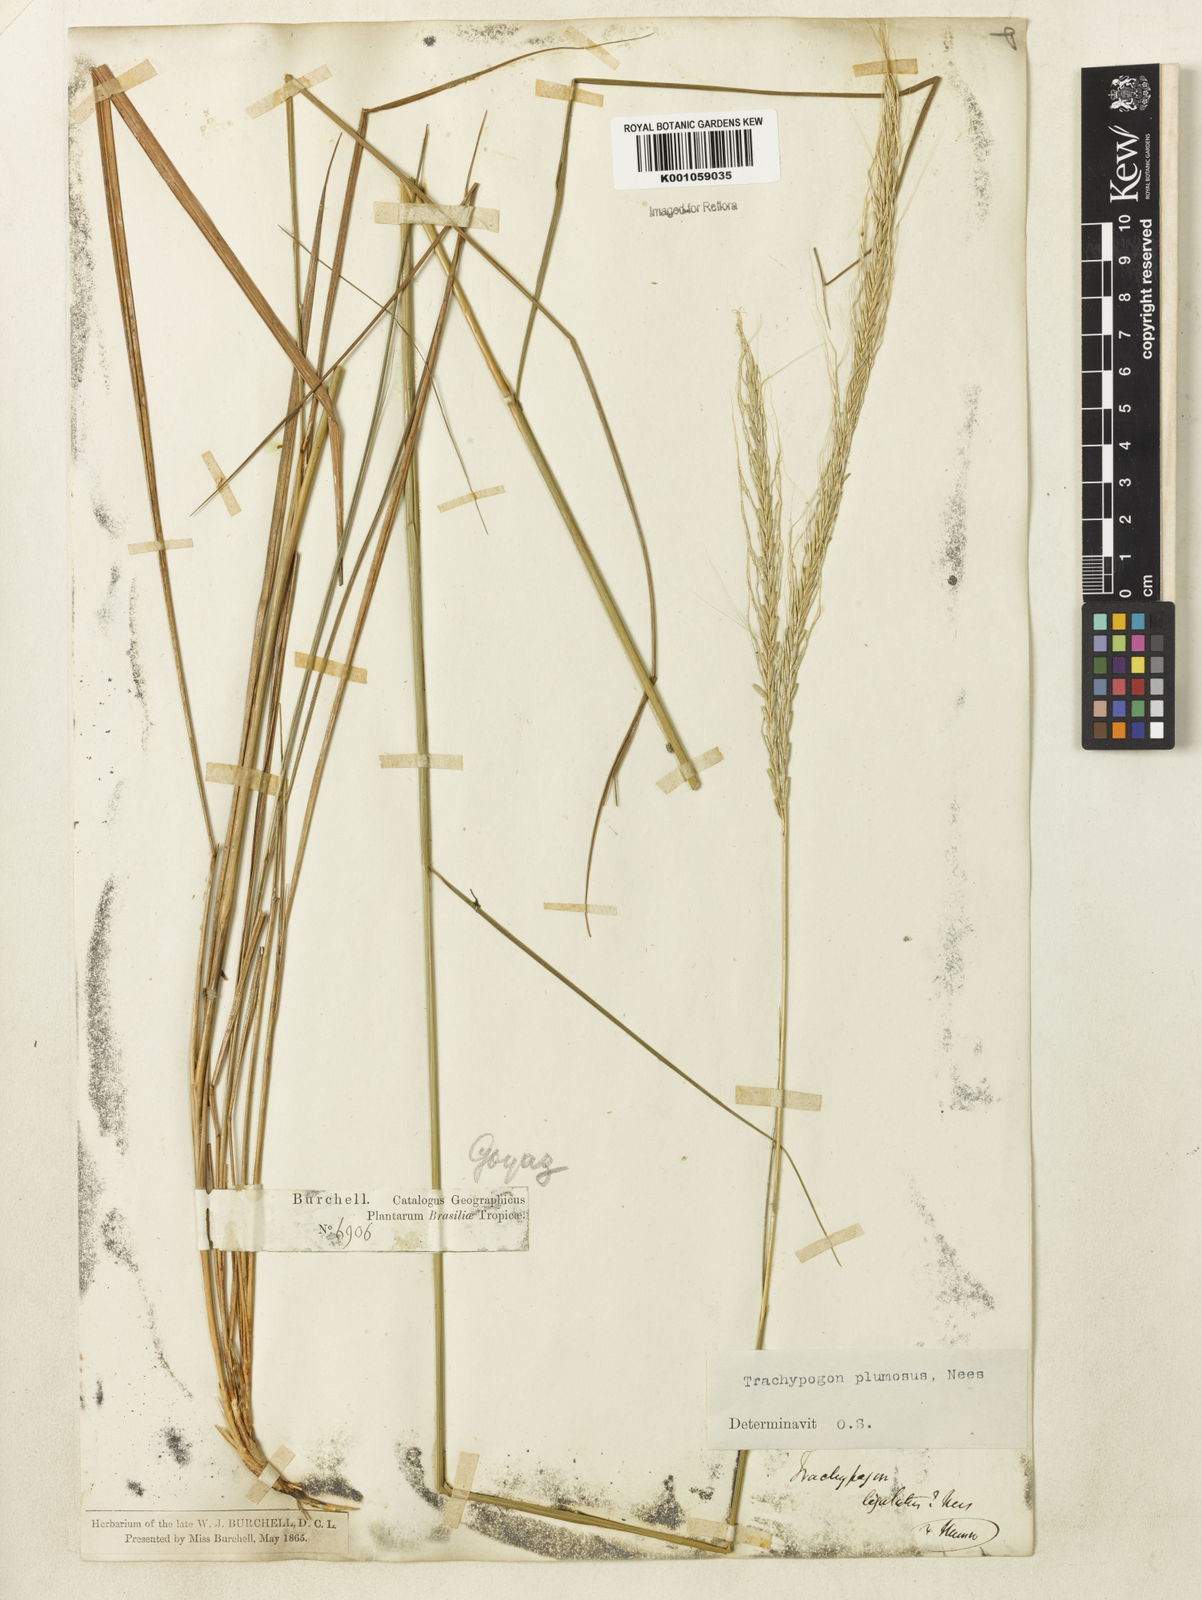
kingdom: Plantae
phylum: Tracheophyta
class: Liliopsida
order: Poales
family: Poaceae
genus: Trachypogon
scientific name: Trachypogon spicatus
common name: Crinkle-awn
